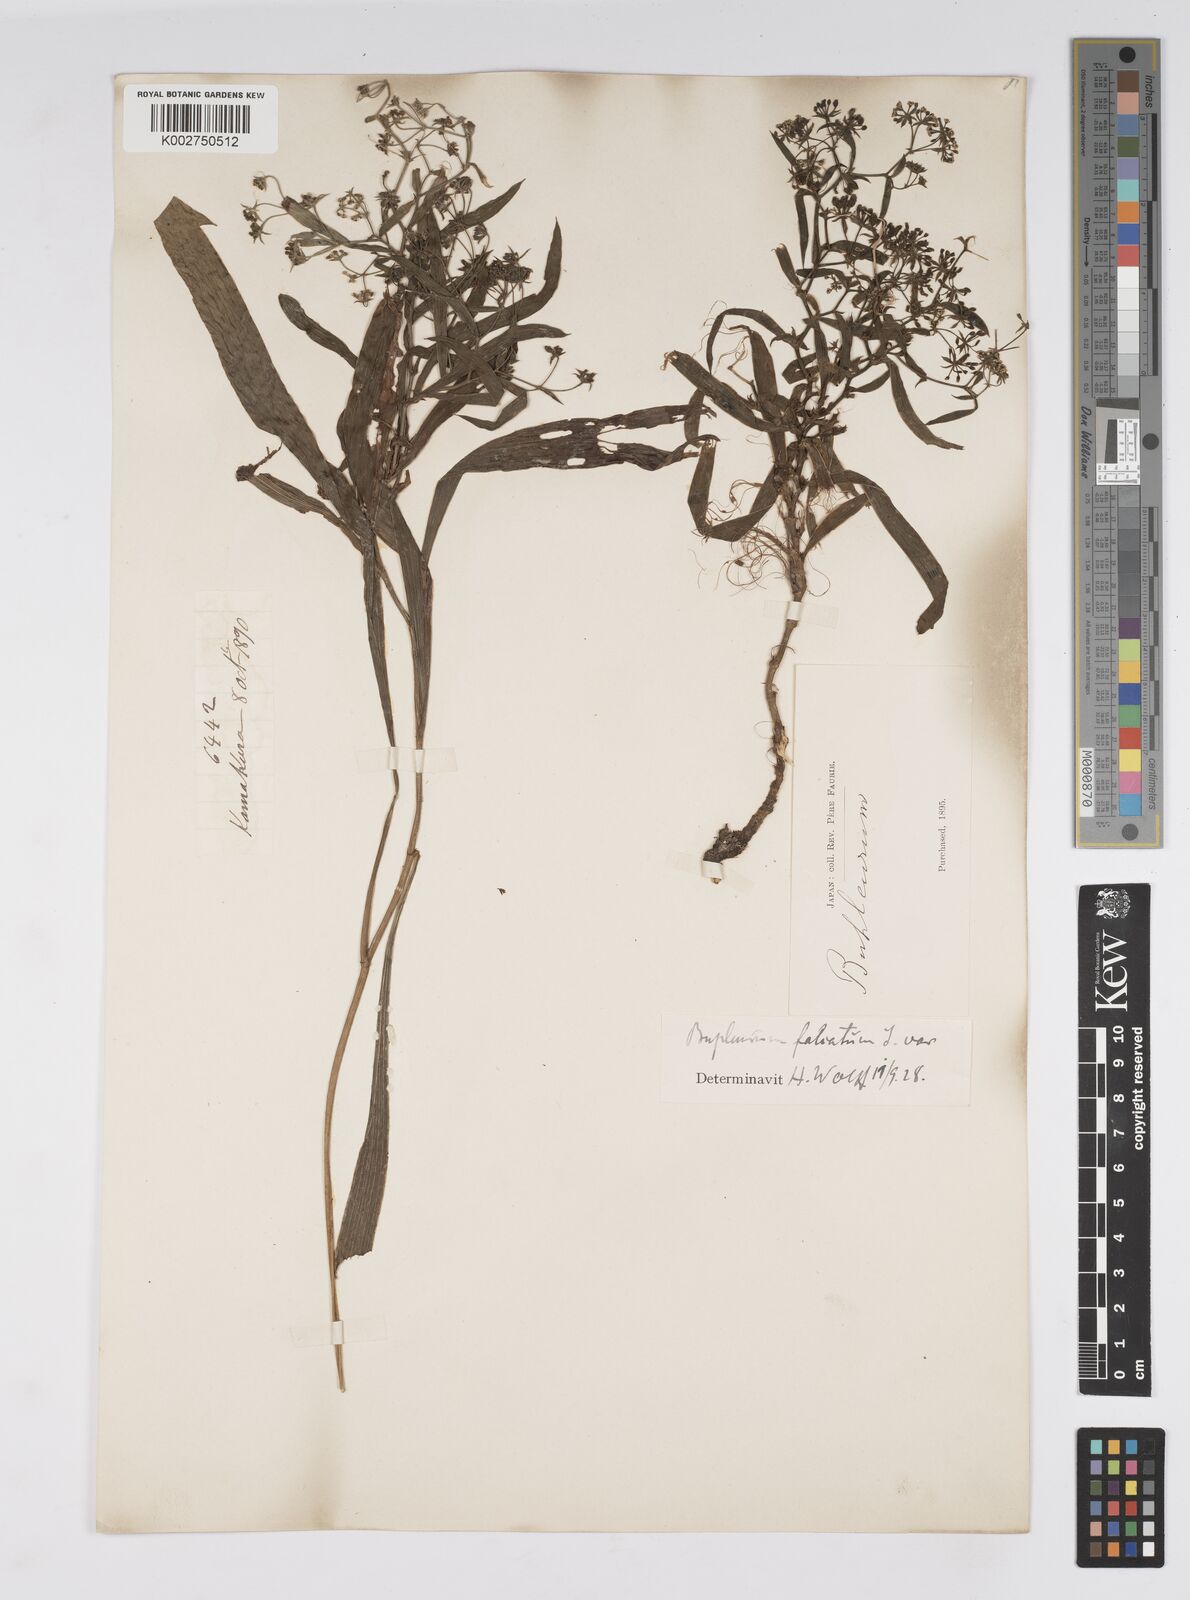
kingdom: Plantae
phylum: Tracheophyta
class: Magnoliopsida
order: Apiales
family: Apiaceae
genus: Bupleurum
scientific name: Bupleurum krylovianum
